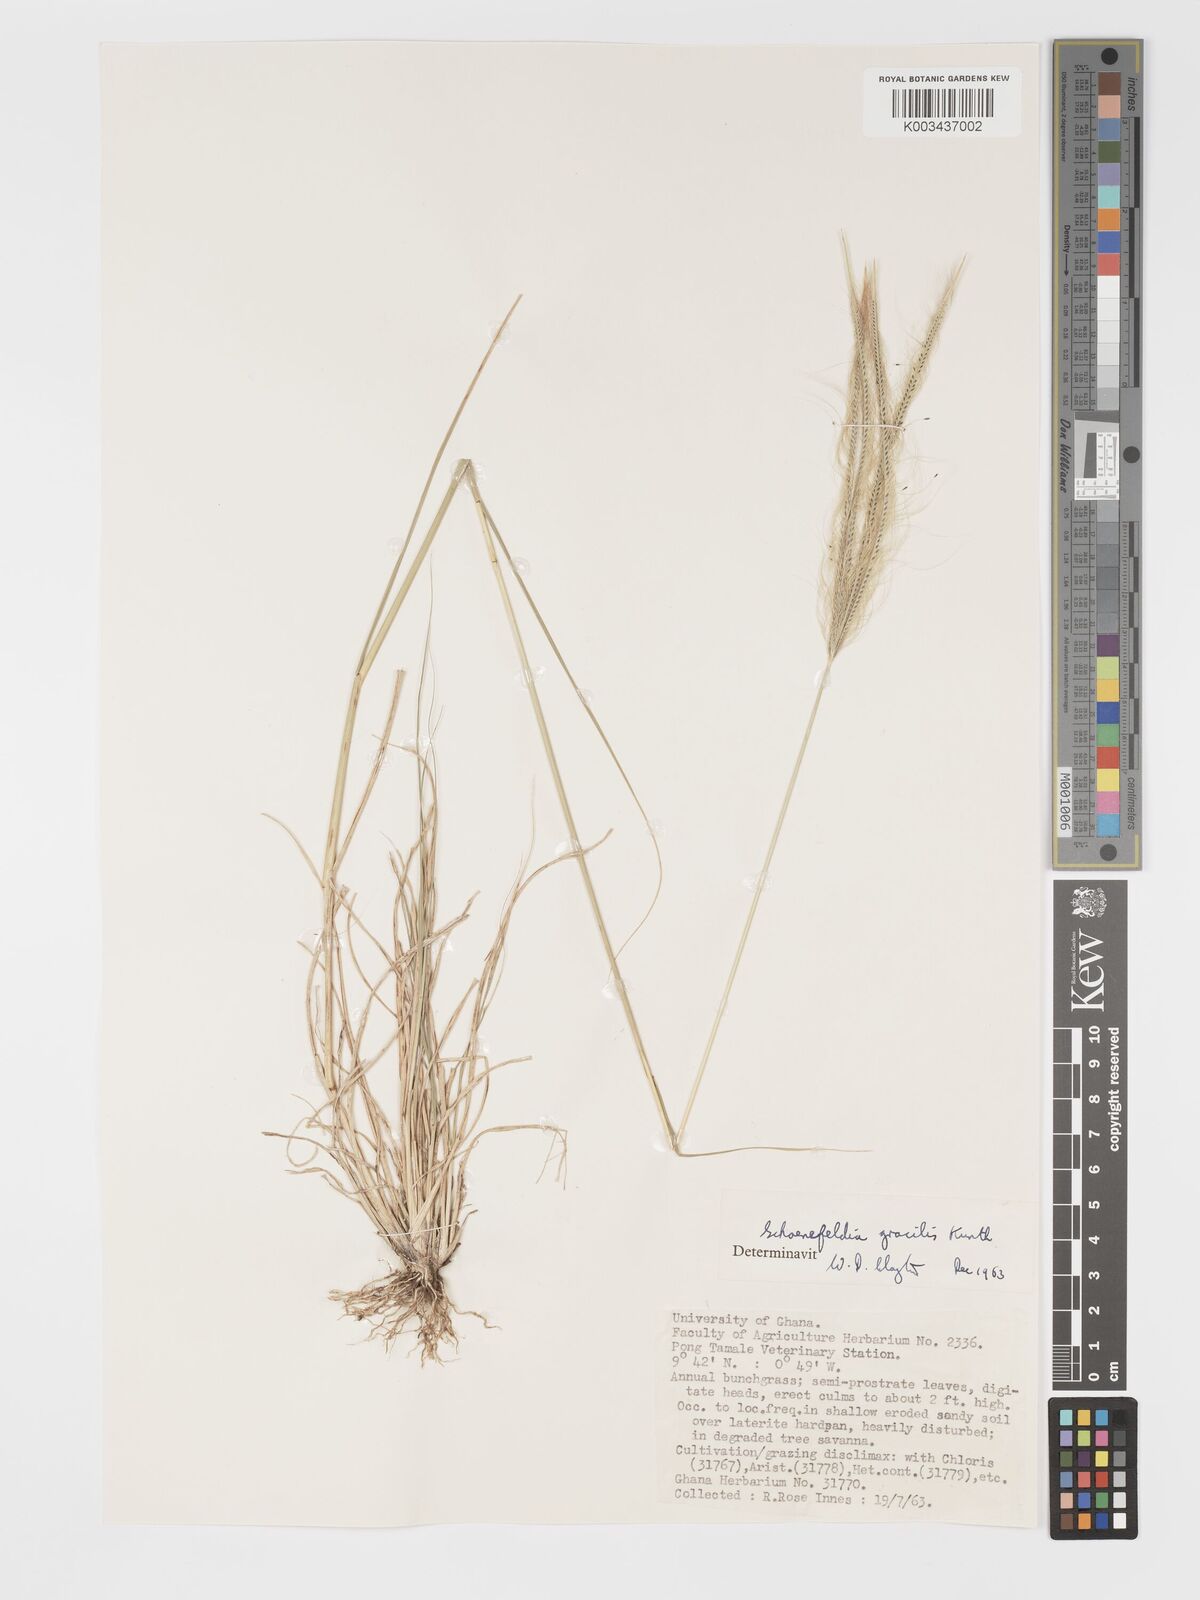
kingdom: Plantae
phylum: Tracheophyta
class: Liliopsida
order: Poales
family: Poaceae
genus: Schoenefeldia
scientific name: Schoenefeldia gracilis
